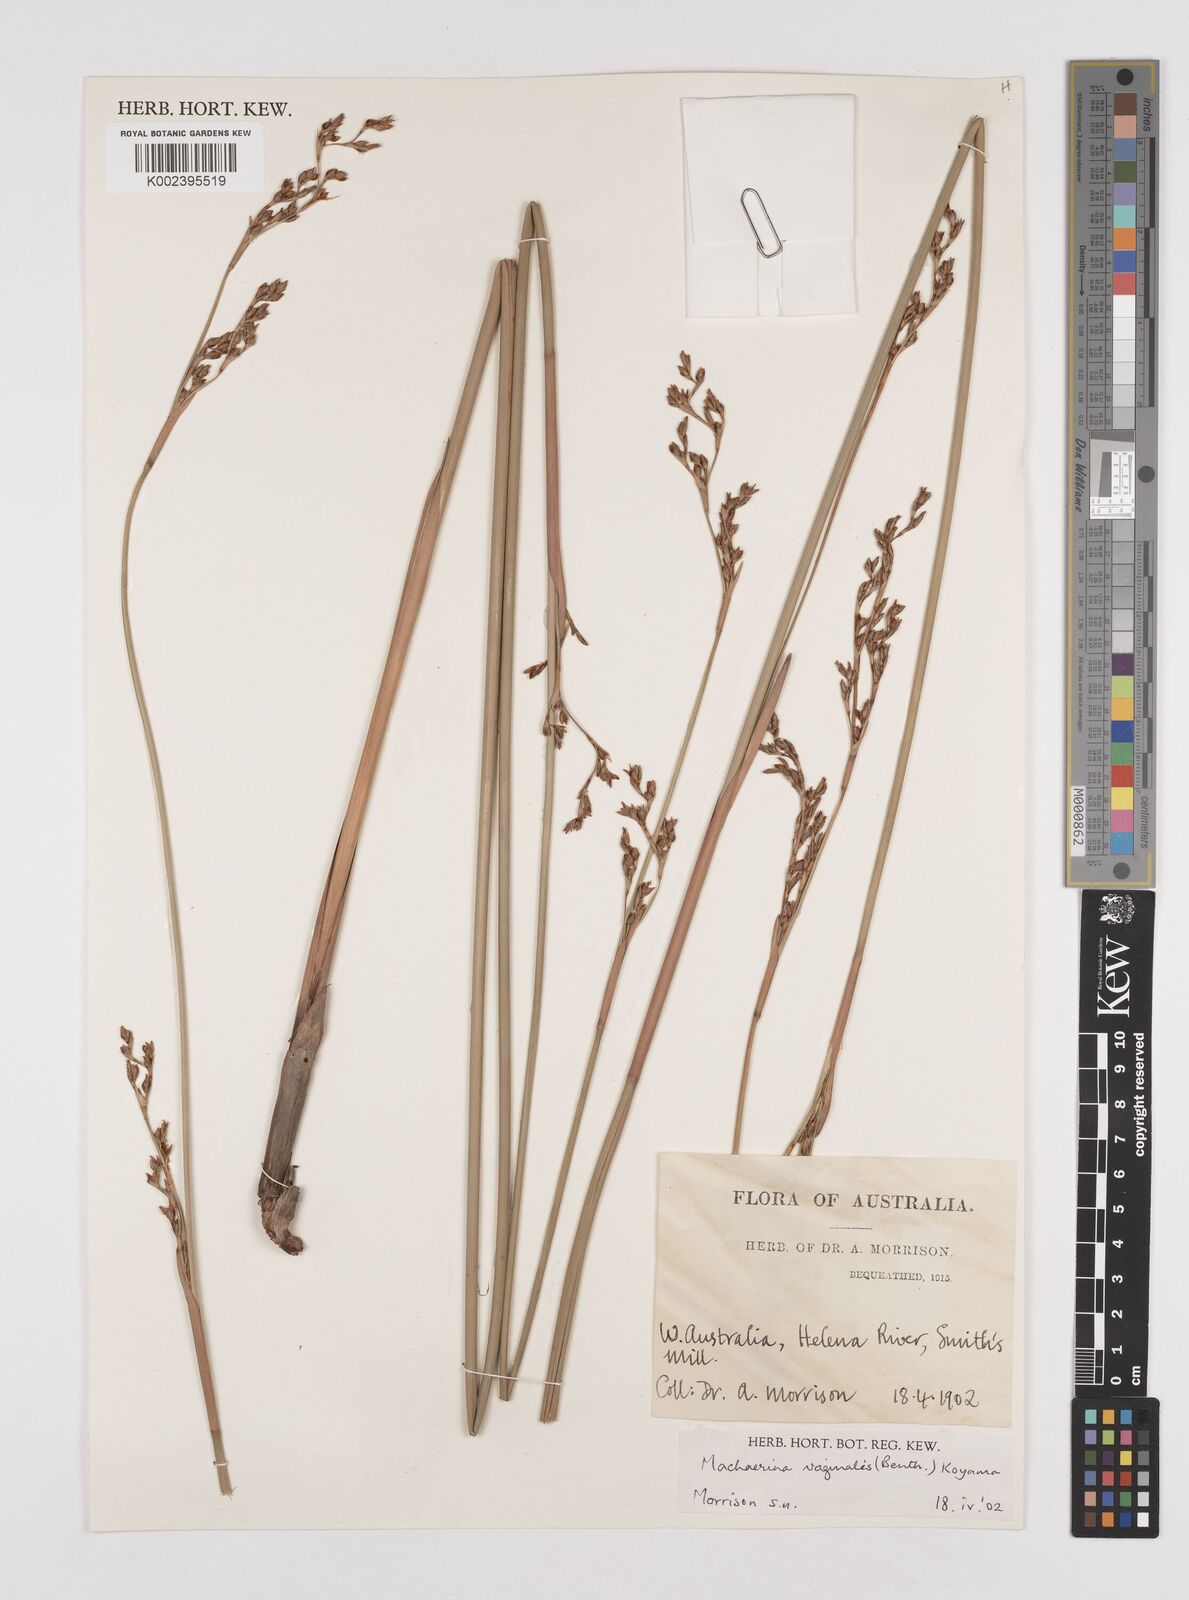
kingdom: Plantae
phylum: Tracheophyta
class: Liliopsida
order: Poales
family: Cyperaceae
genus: Machaerina
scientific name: Machaerina vaginalis
